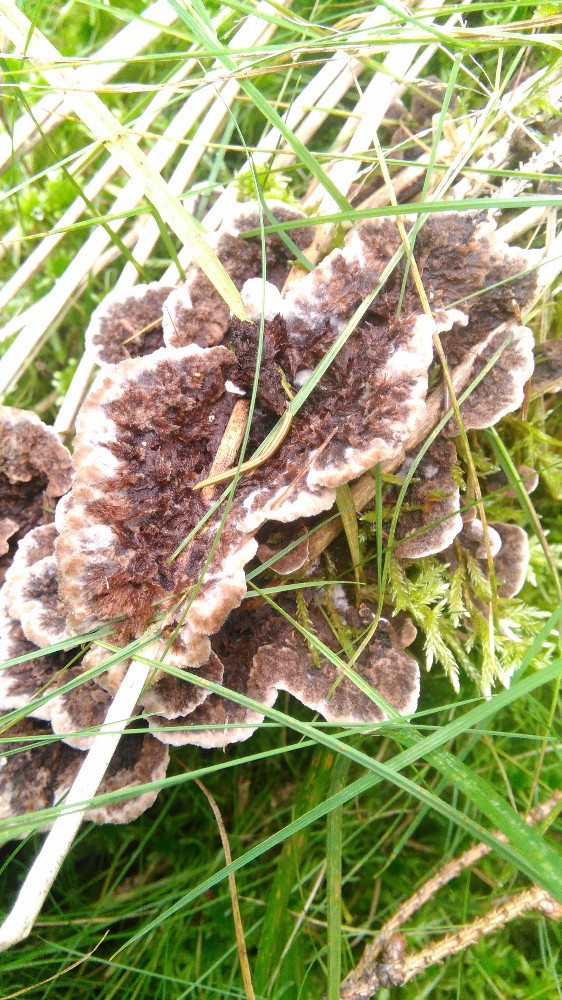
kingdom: Fungi
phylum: Basidiomycota
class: Agaricomycetes
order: Thelephorales
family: Thelephoraceae
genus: Thelephora
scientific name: Thelephora terrestris
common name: fliget frynsesvamp
